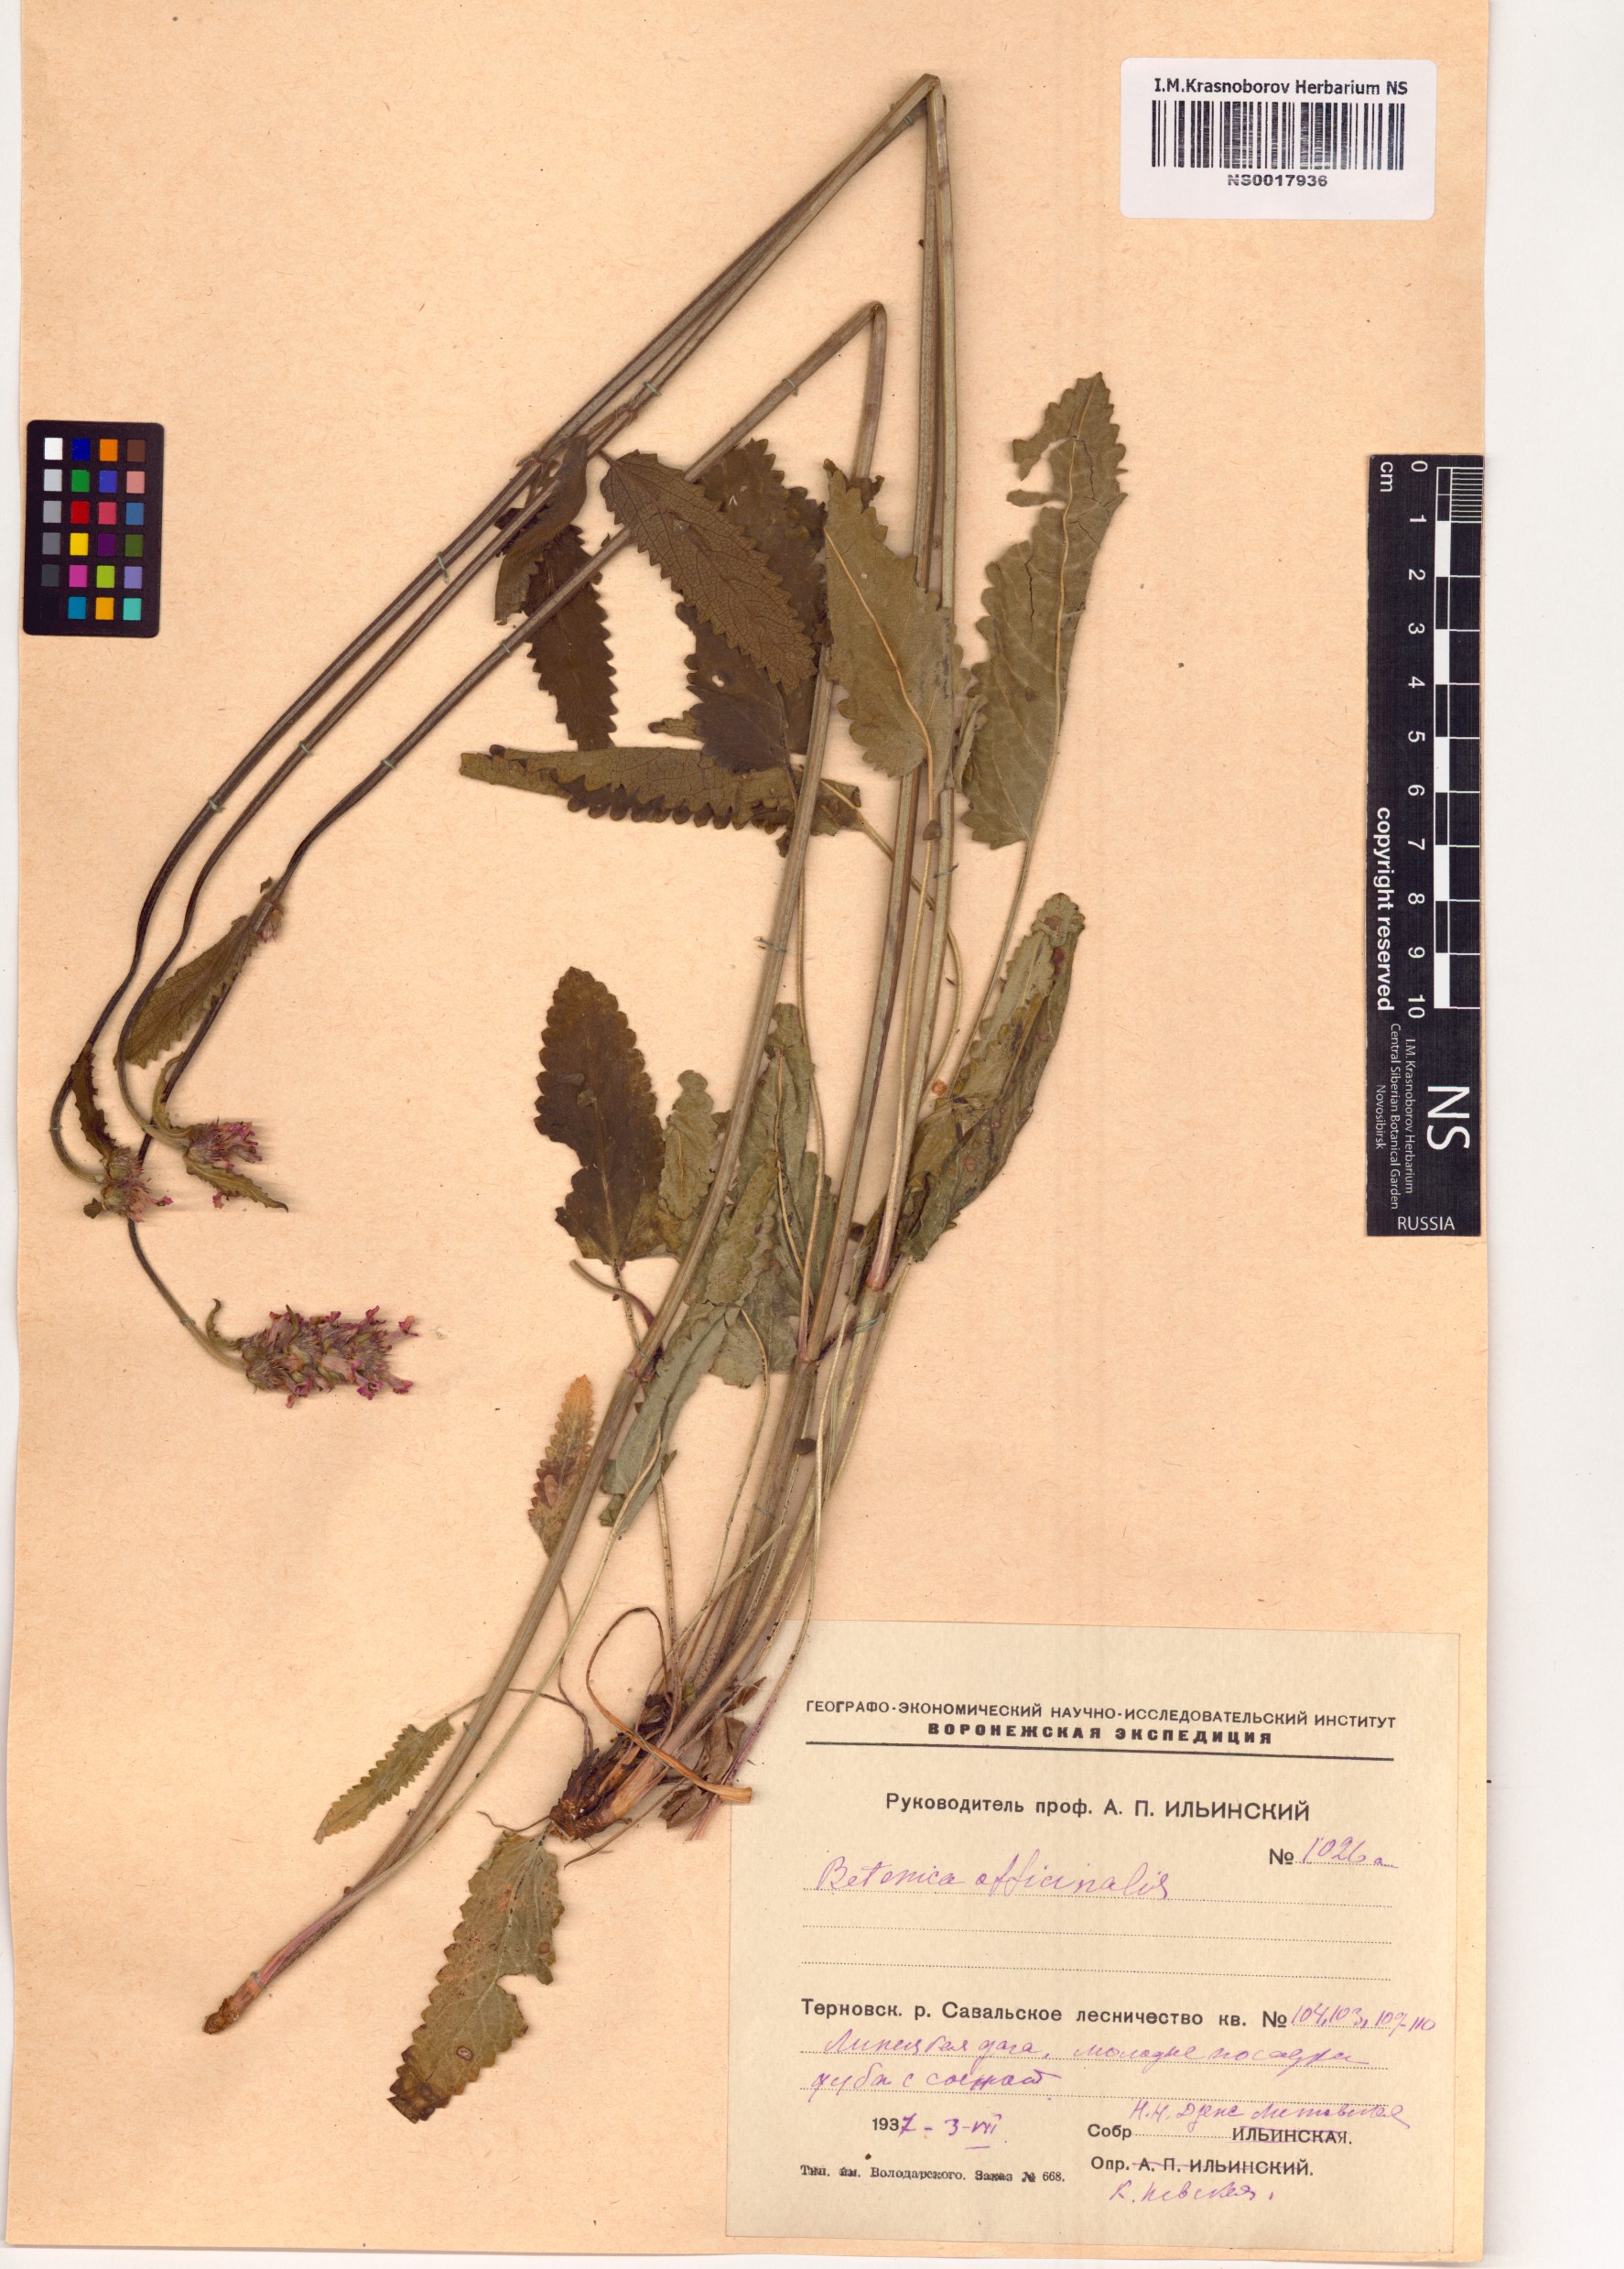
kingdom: Plantae
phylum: Tracheophyta
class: Magnoliopsida
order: Lamiales
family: Lamiaceae
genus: Betonica
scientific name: Betonica officinalis
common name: Bishop's-wort
